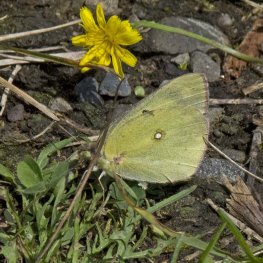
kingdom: Animalia
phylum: Arthropoda
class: Insecta
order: Lepidoptera
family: Pieridae
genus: Colias
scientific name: Colias philodice
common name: Clouded Sulphur
